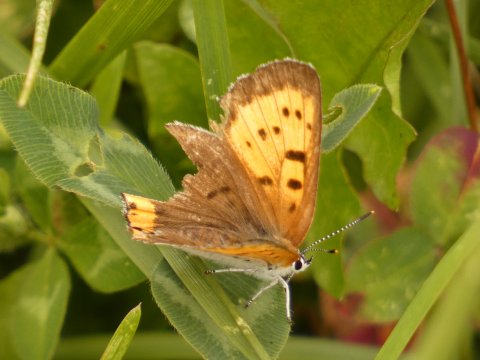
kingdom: Animalia
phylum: Arthropoda
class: Insecta
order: Lepidoptera
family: Sesiidae
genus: Sesia
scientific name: Sesia Lycaena hyllus
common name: Bronze Copper
